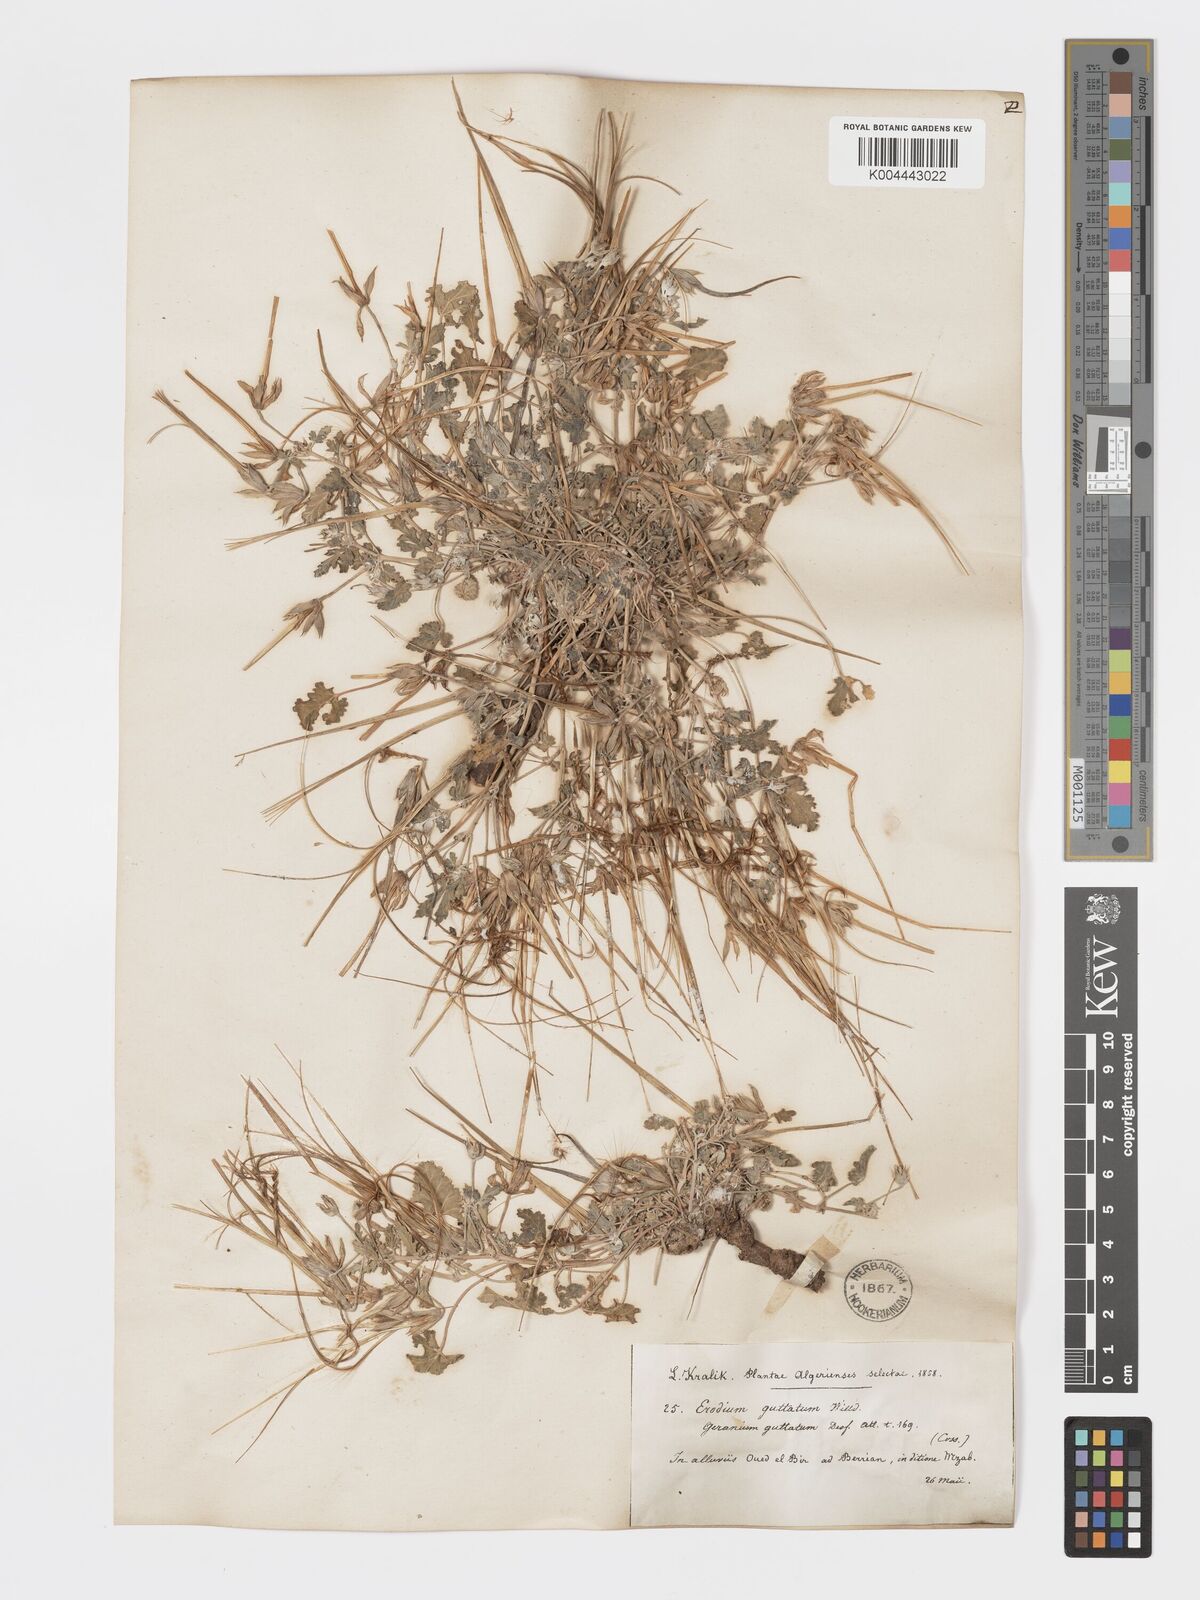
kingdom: Plantae
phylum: Tracheophyta
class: Magnoliopsida
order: Geraniales
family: Geraniaceae
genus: Erodium
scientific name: Erodium guttatum
